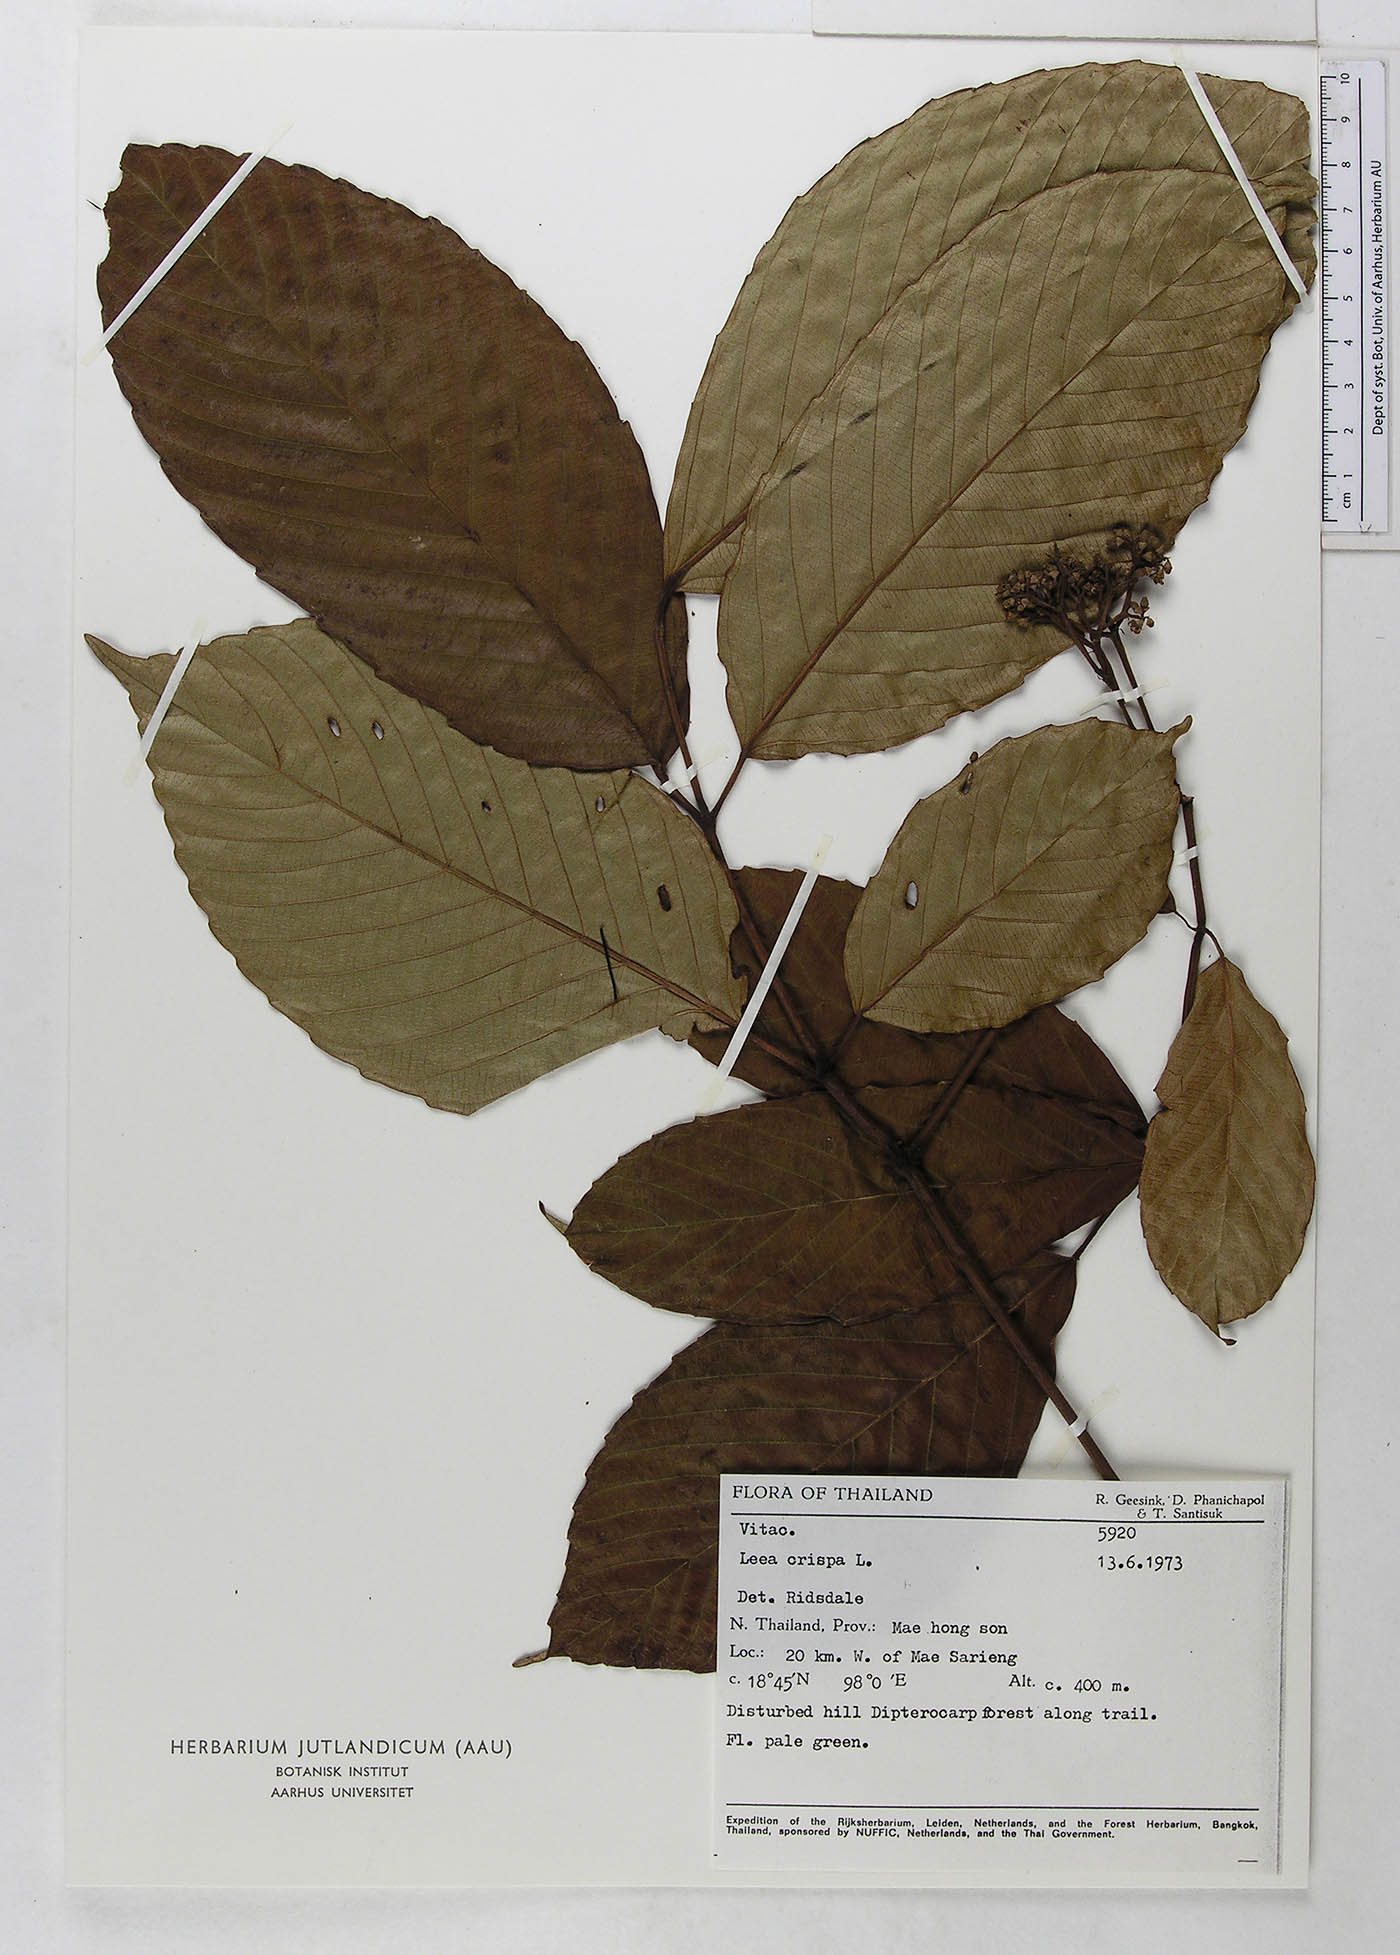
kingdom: Plantae
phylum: Tracheophyta
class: Magnoliopsida
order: Vitales
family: Vitaceae
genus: Leea
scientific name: Leea asiatica
